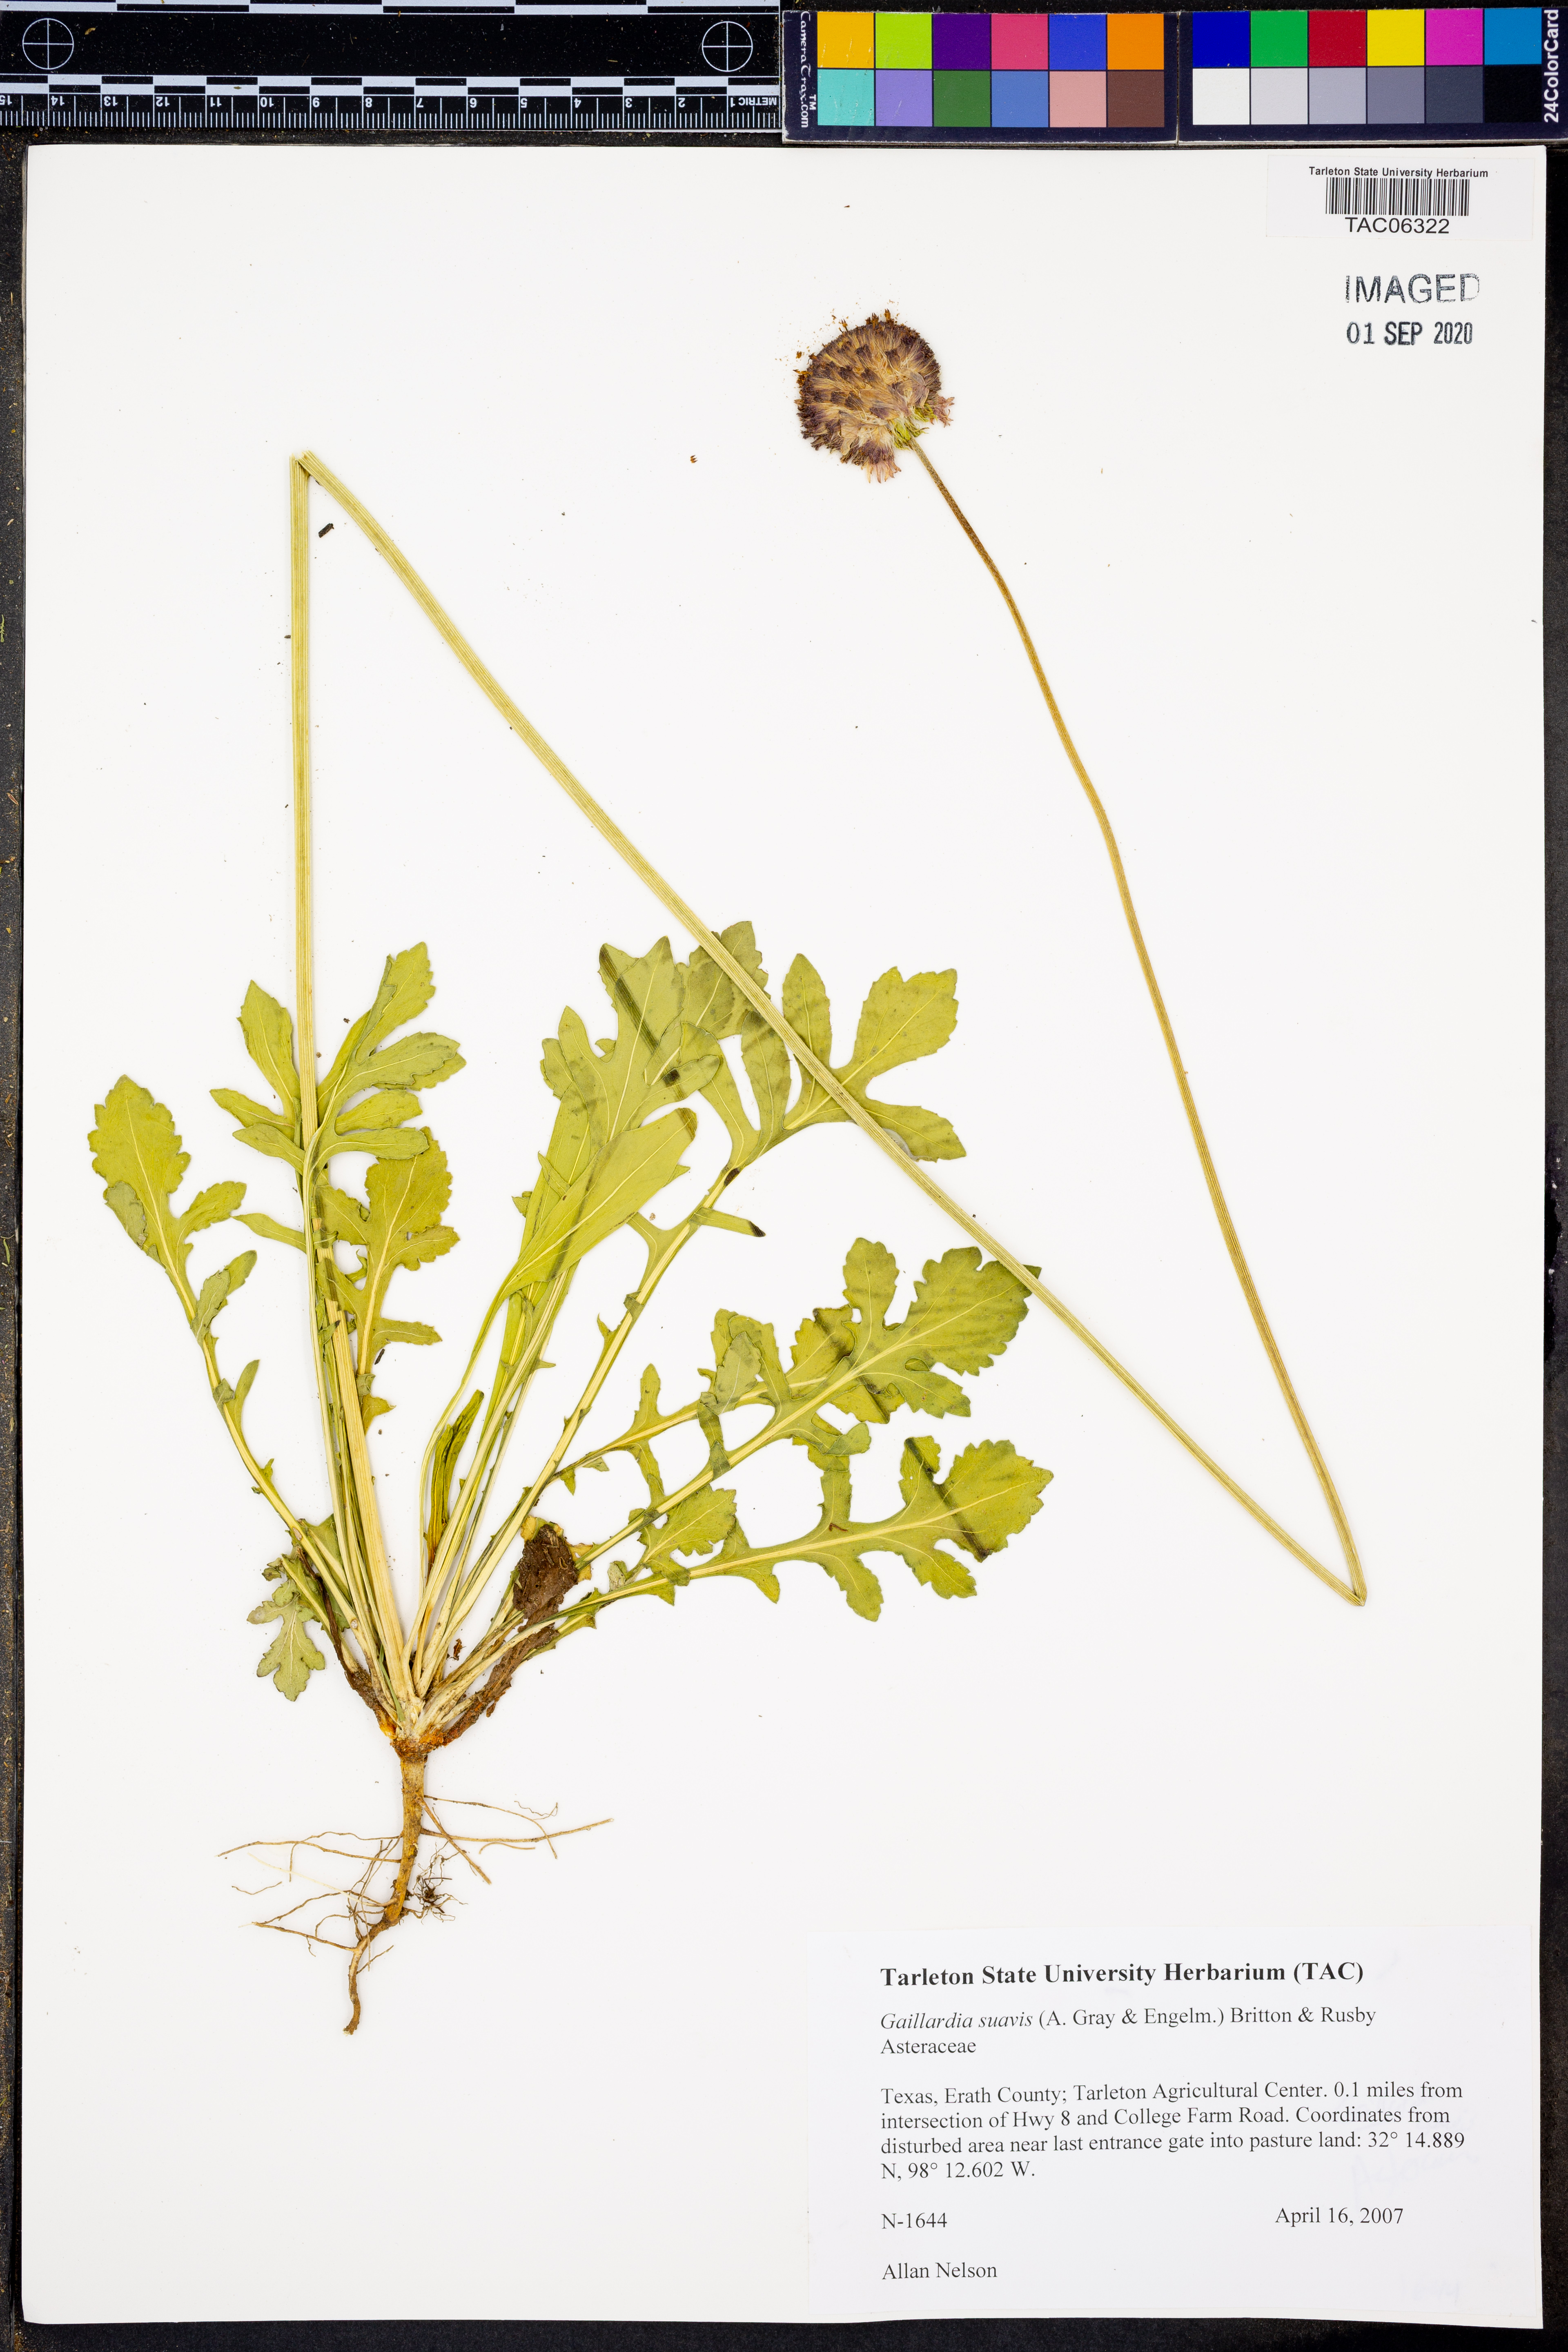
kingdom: Plantae
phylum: Tracheophyta
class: Magnoliopsida
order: Asterales
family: Asteraceae
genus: Gaillardia
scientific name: Gaillardia suavis
